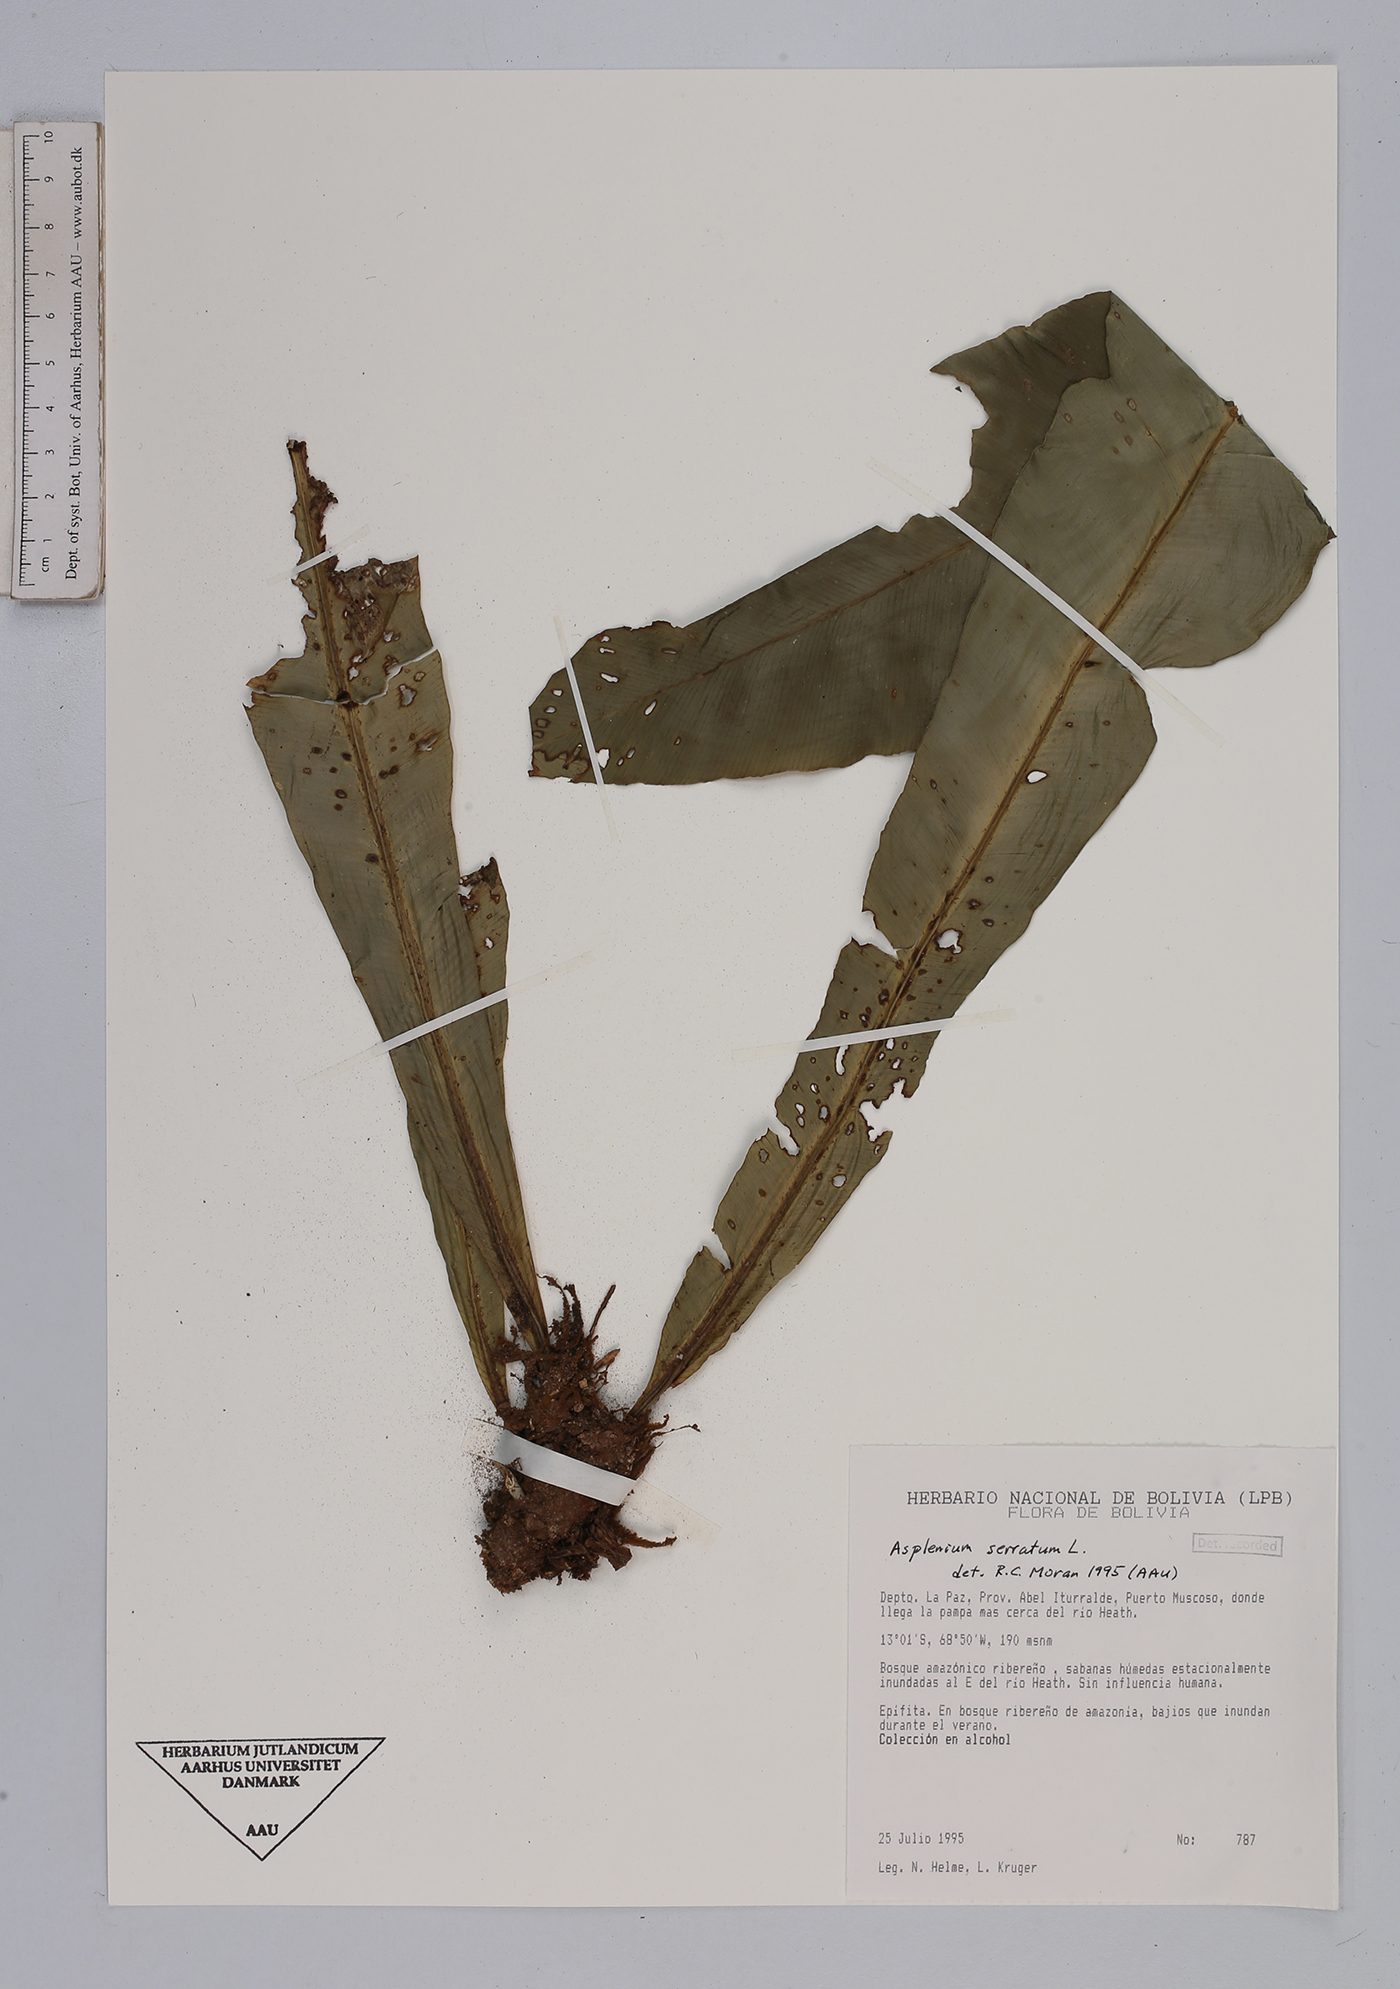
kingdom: Plantae
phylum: Tracheophyta
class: Polypodiopsida
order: Polypodiales
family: Aspleniaceae
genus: Asplenium
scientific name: Asplenium serratum
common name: Wild birdnest fern
